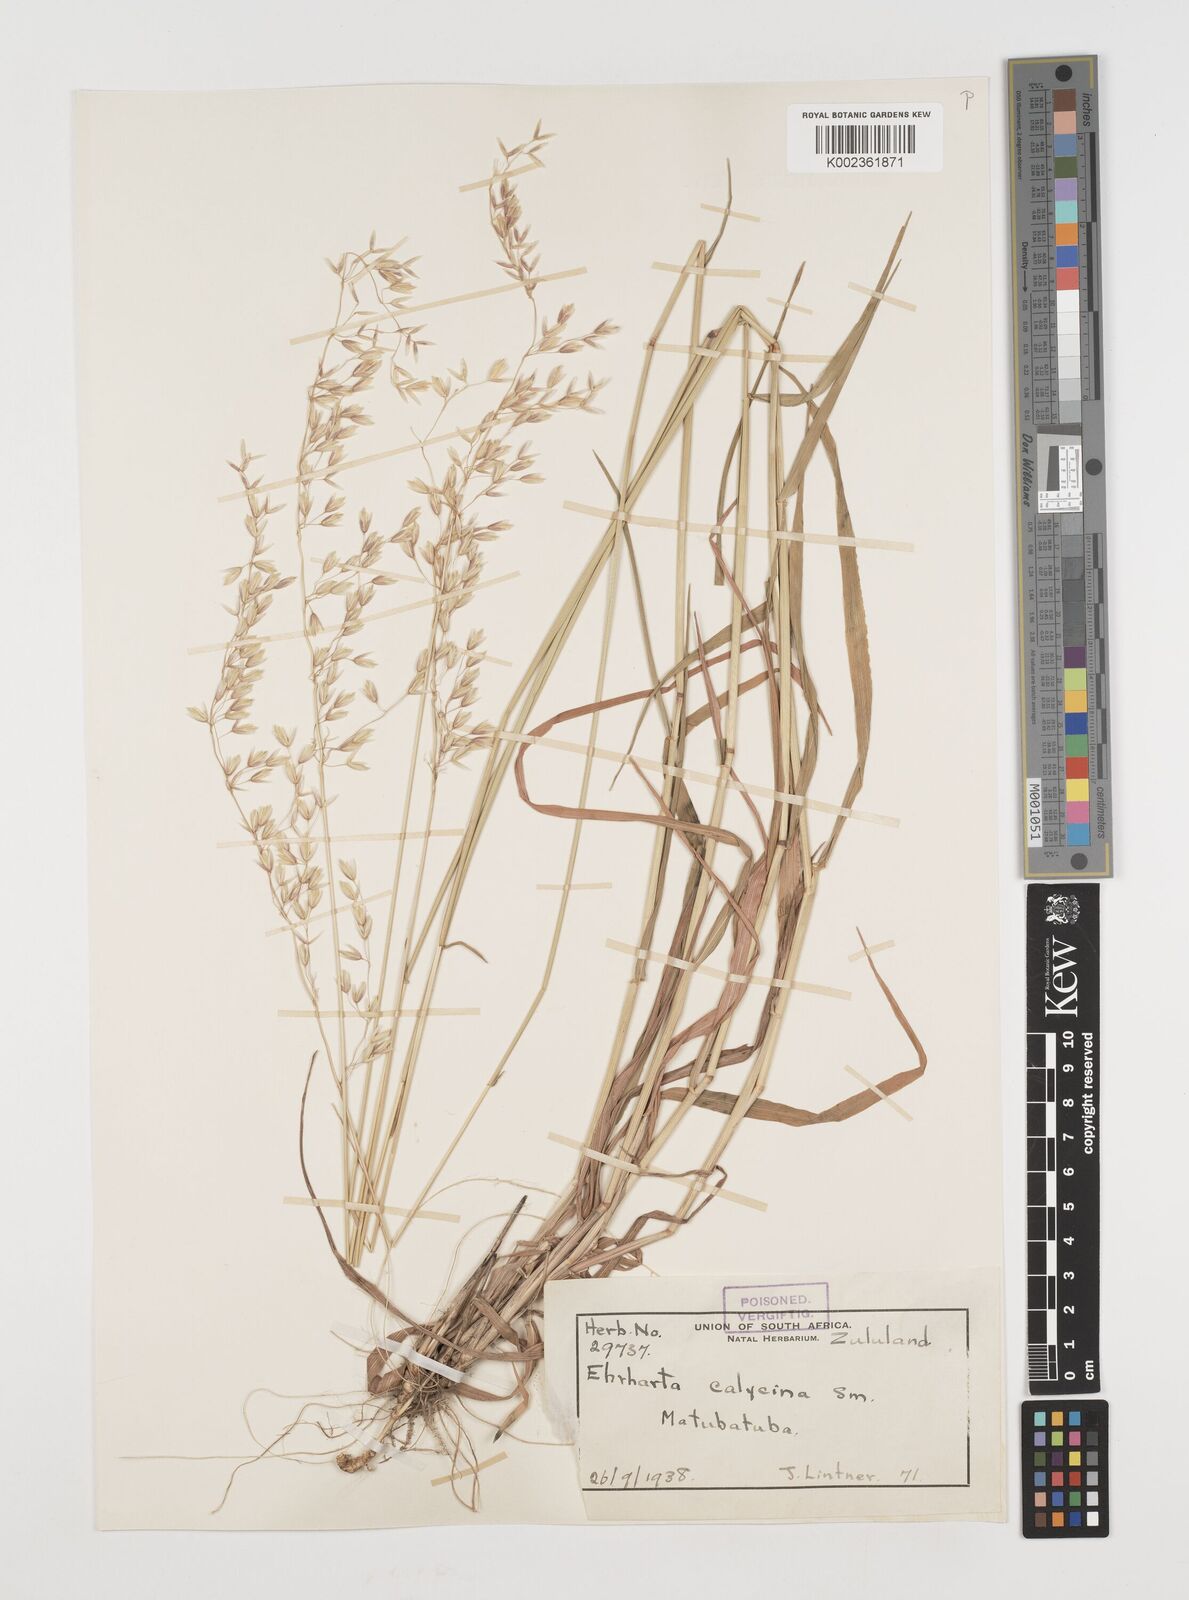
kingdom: Plantae
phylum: Tracheophyta
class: Liliopsida
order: Poales
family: Poaceae
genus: Ehrharta
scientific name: Ehrharta
